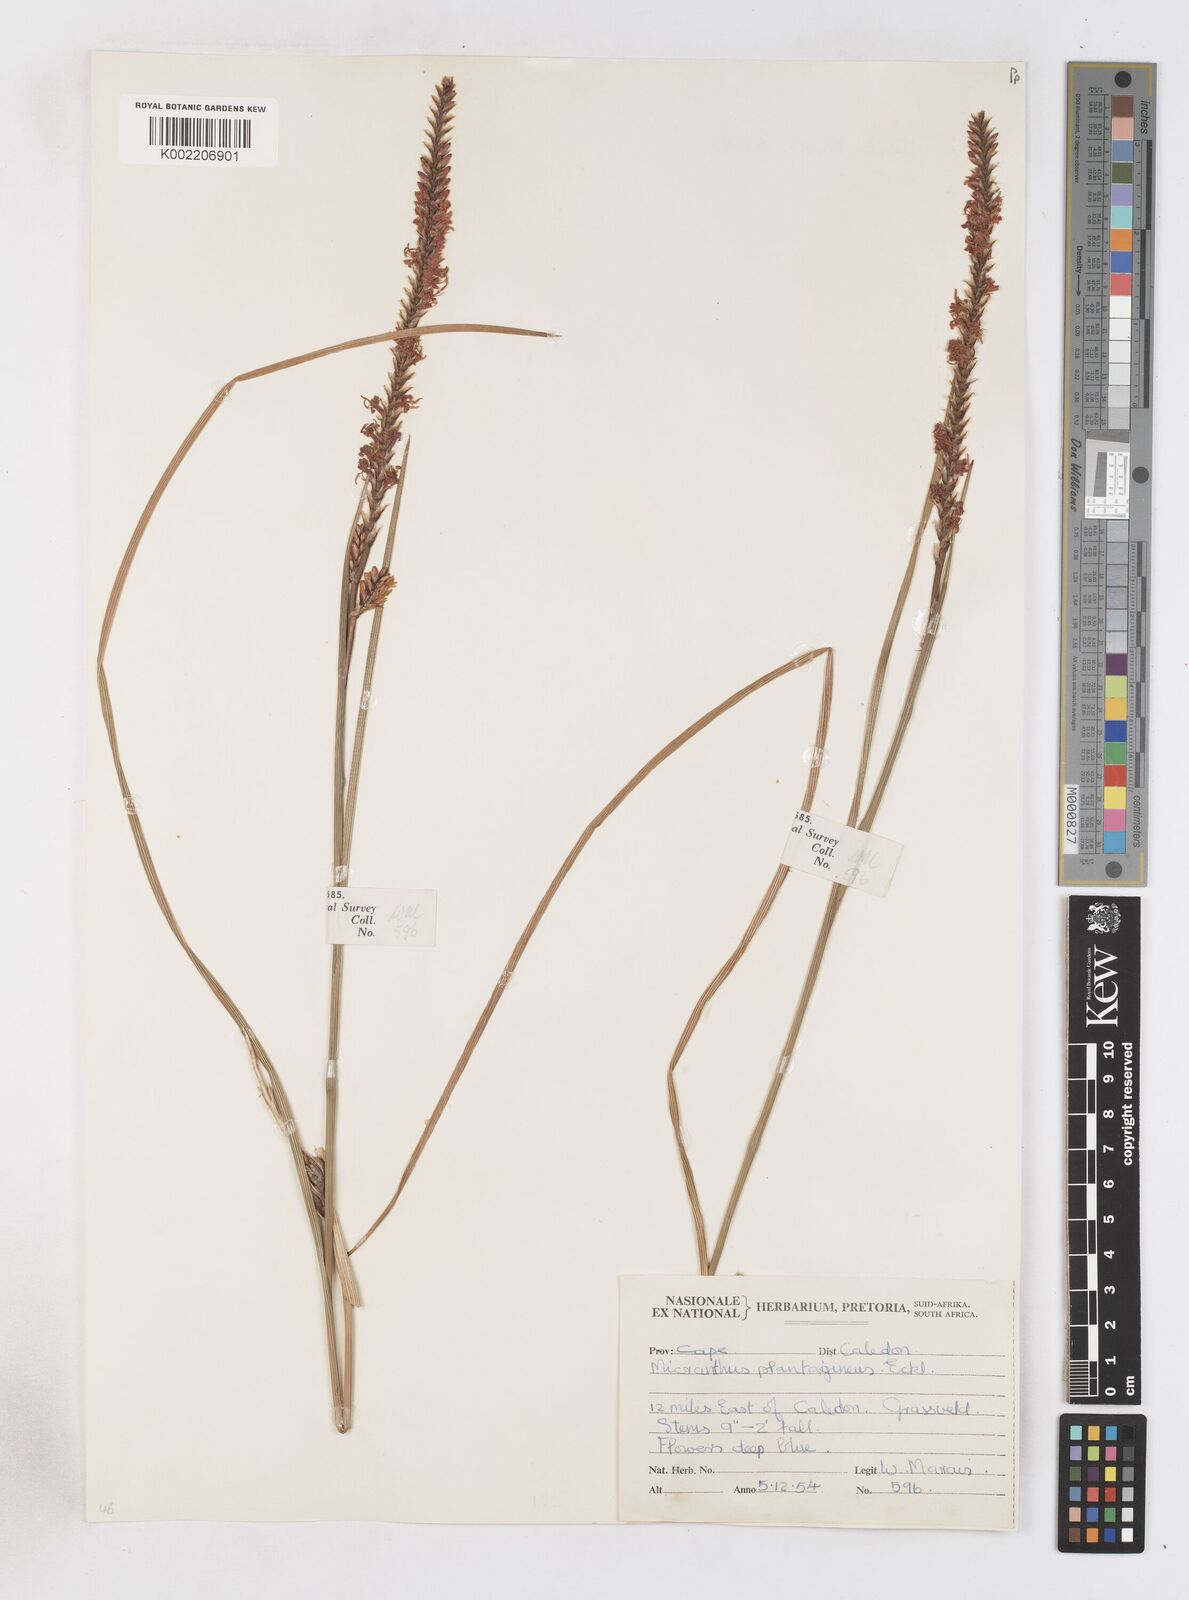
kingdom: Plantae
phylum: Tracheophyta
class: Liliopsida
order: Asparagales
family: Iridaceae
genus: Micranthus
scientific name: Micranthus plantagineus
